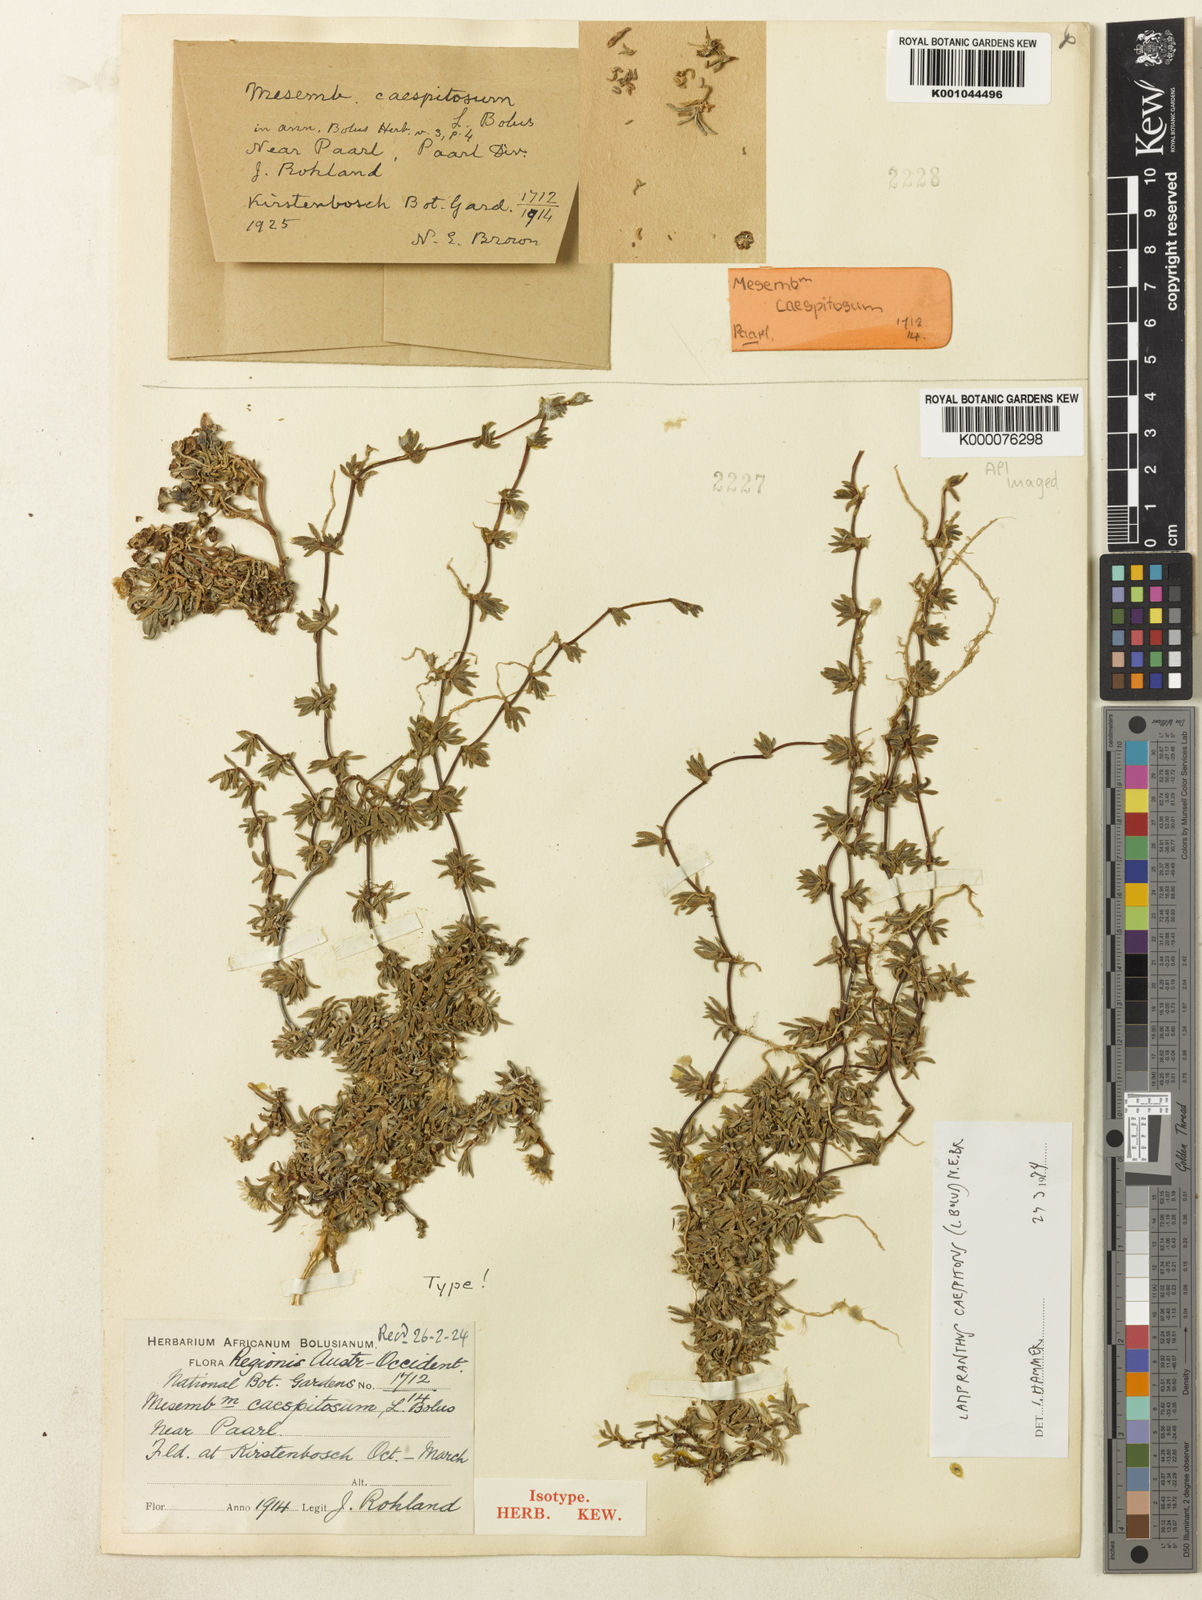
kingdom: Plantae
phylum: Tracheophyta
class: Magnoliopsida
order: Caryophyllales
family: Aizoaceae
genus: Lampranthus
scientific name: Lampranthus caespitosus
